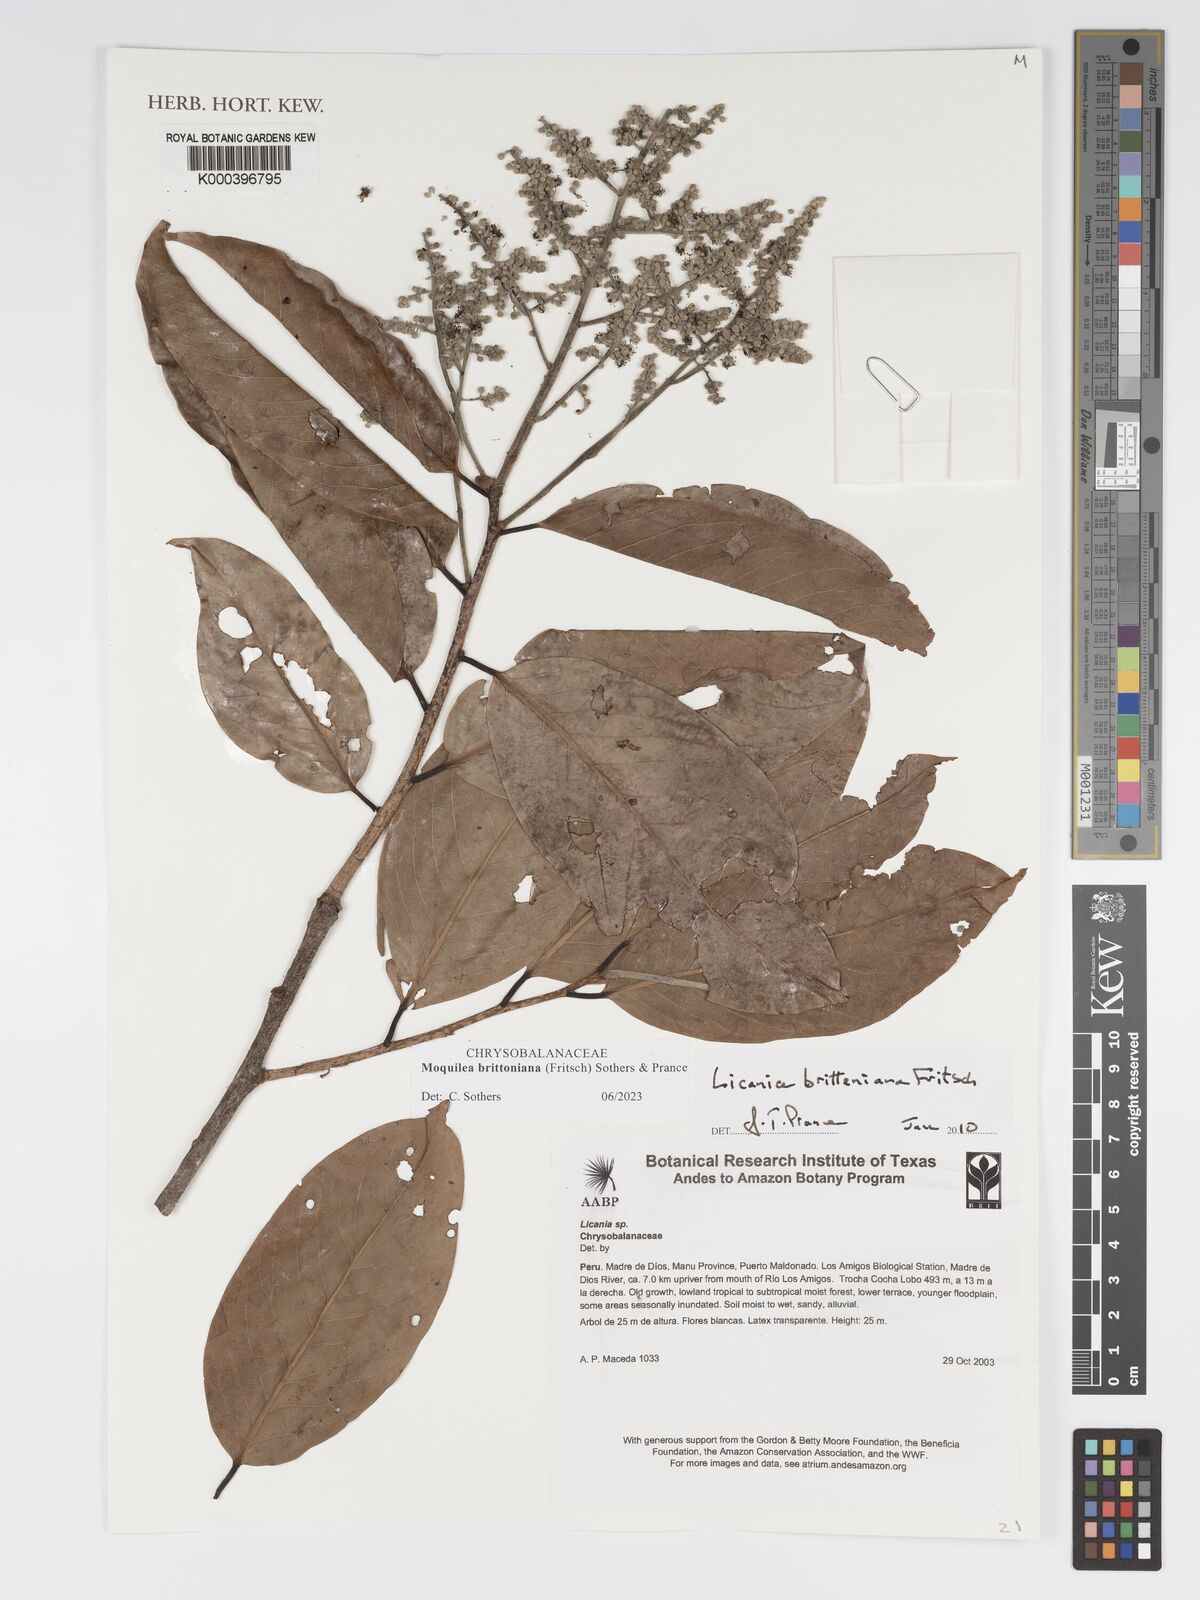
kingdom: Plantae
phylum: Tracheophyta
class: Magnoliopsida
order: Malpighiales
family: Chrysobalanaceae
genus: Licania
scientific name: Licania
